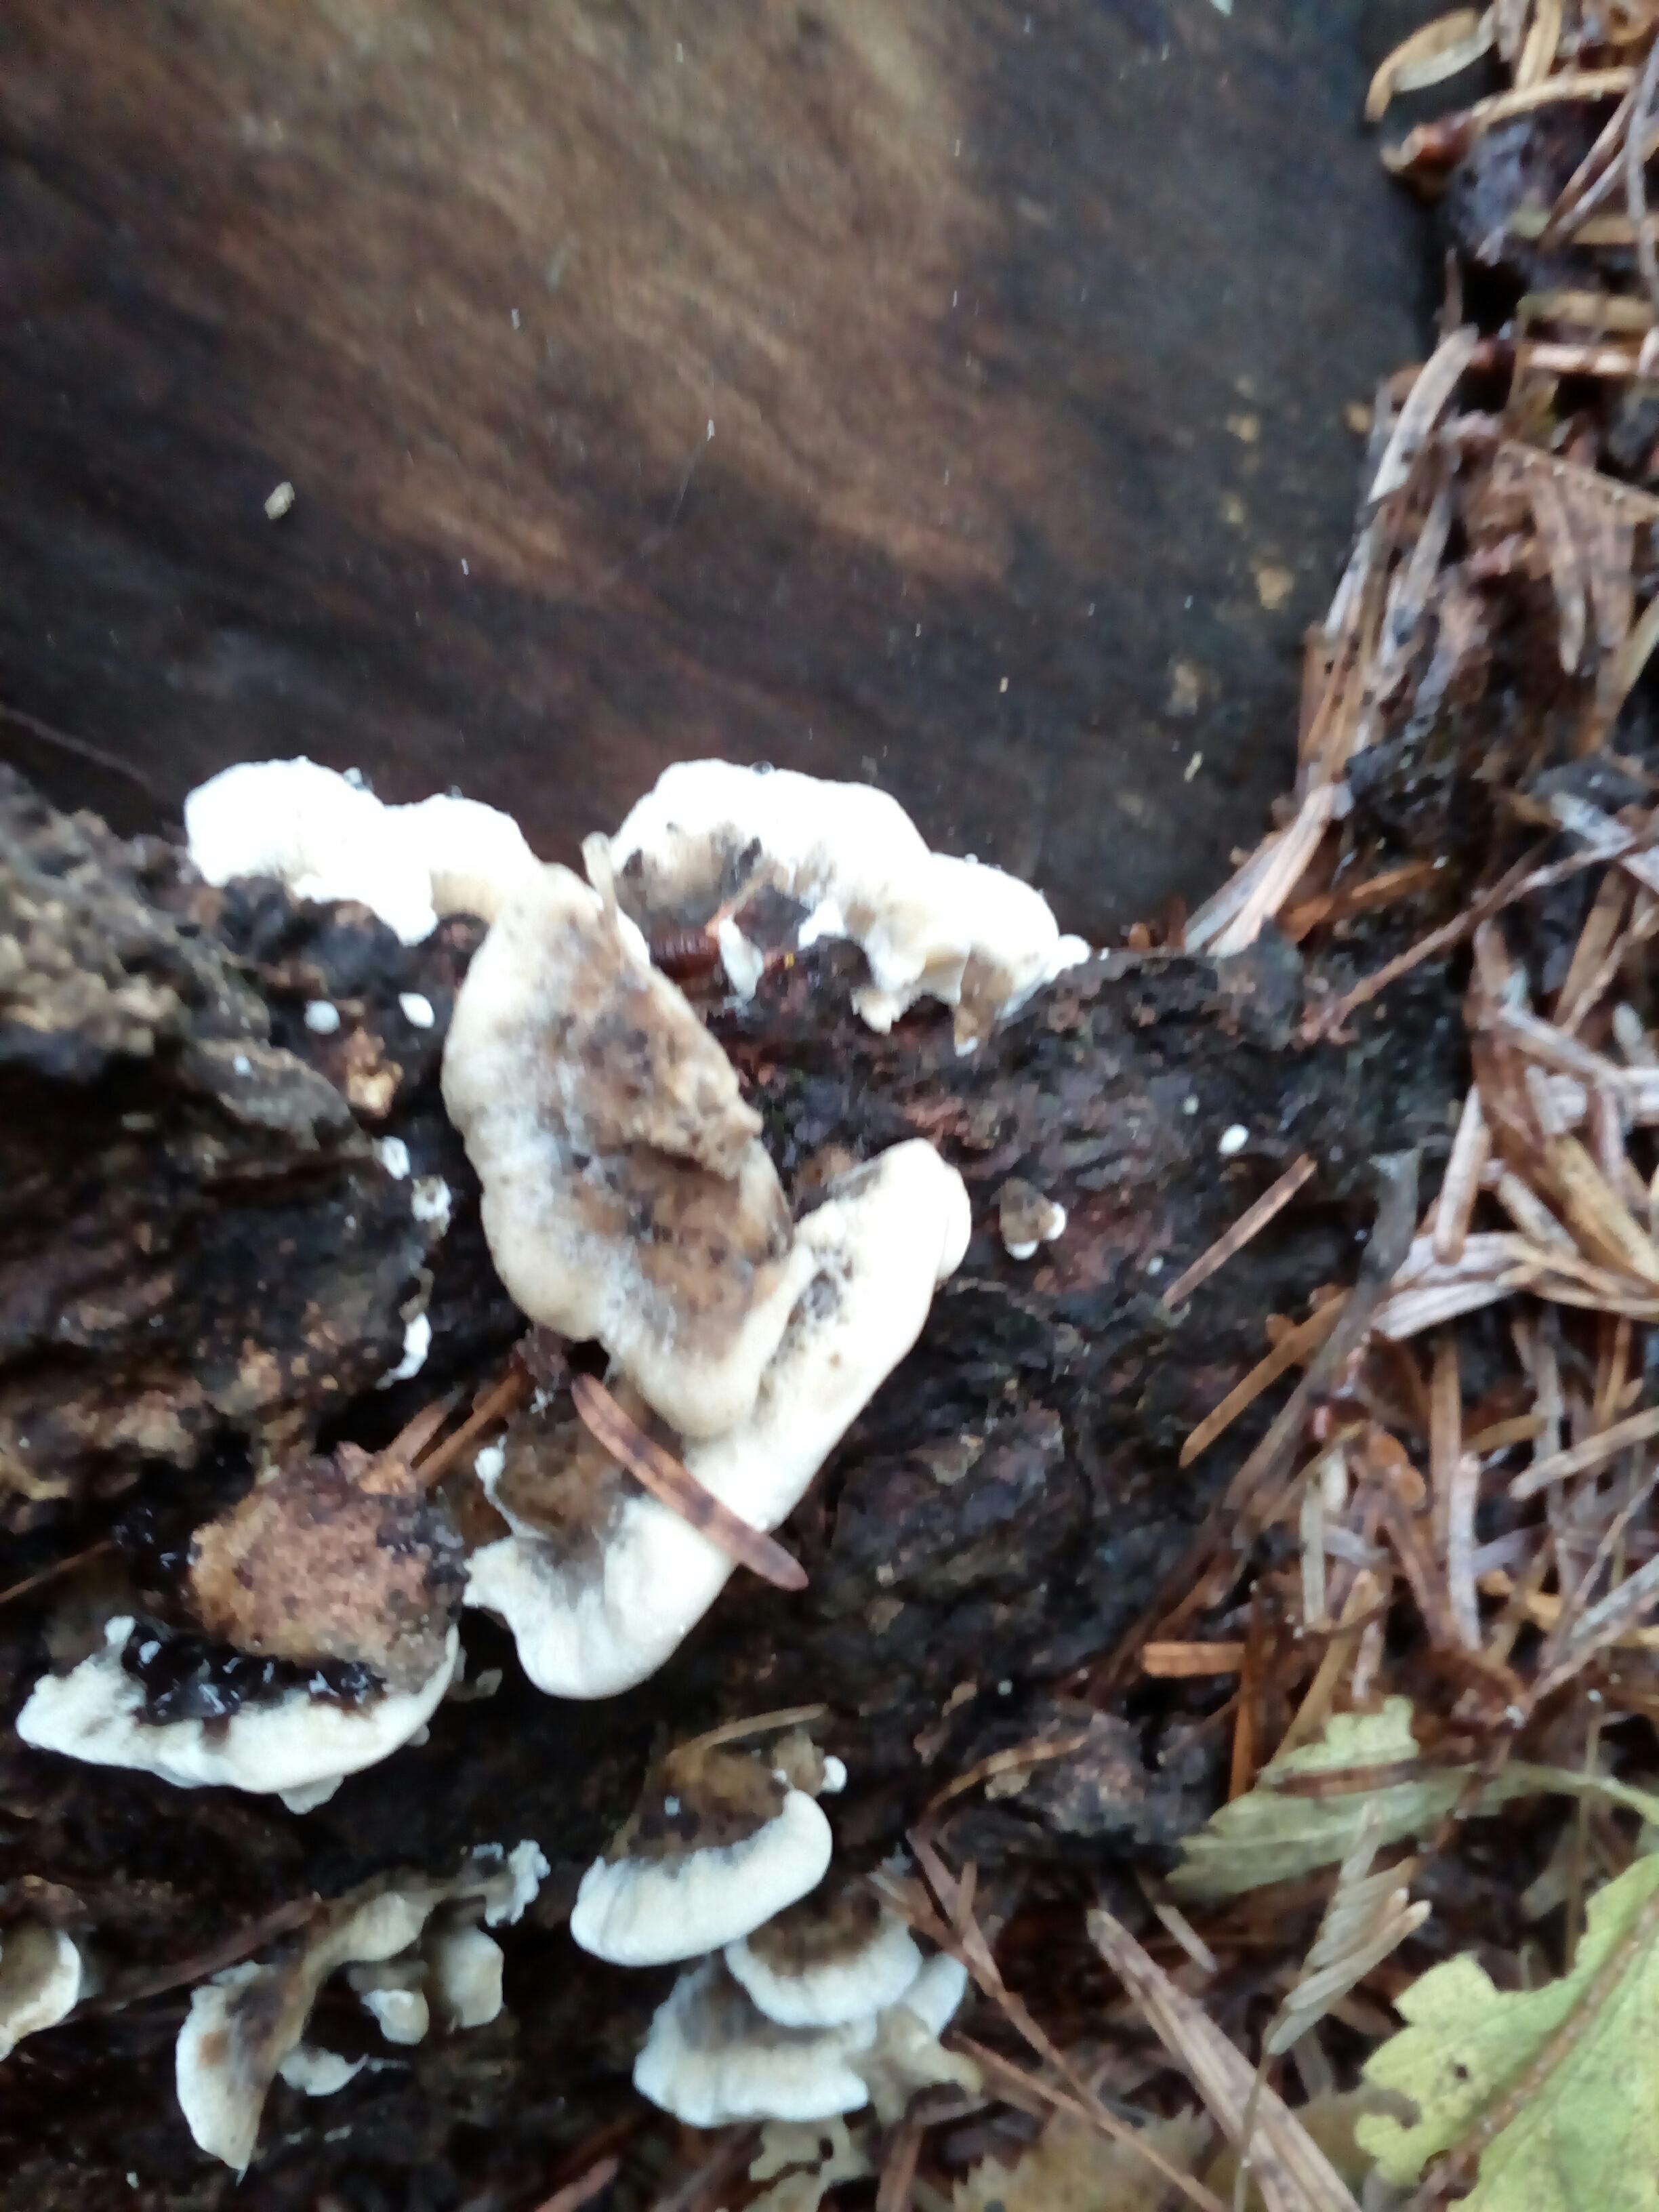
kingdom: Fungi
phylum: Basidiomycota
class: Agaricomycetes
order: Polyporales
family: Phanerochaetaceae
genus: Bjerkandera
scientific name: Bjerkandera adusta
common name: sveden sodporesvamp
